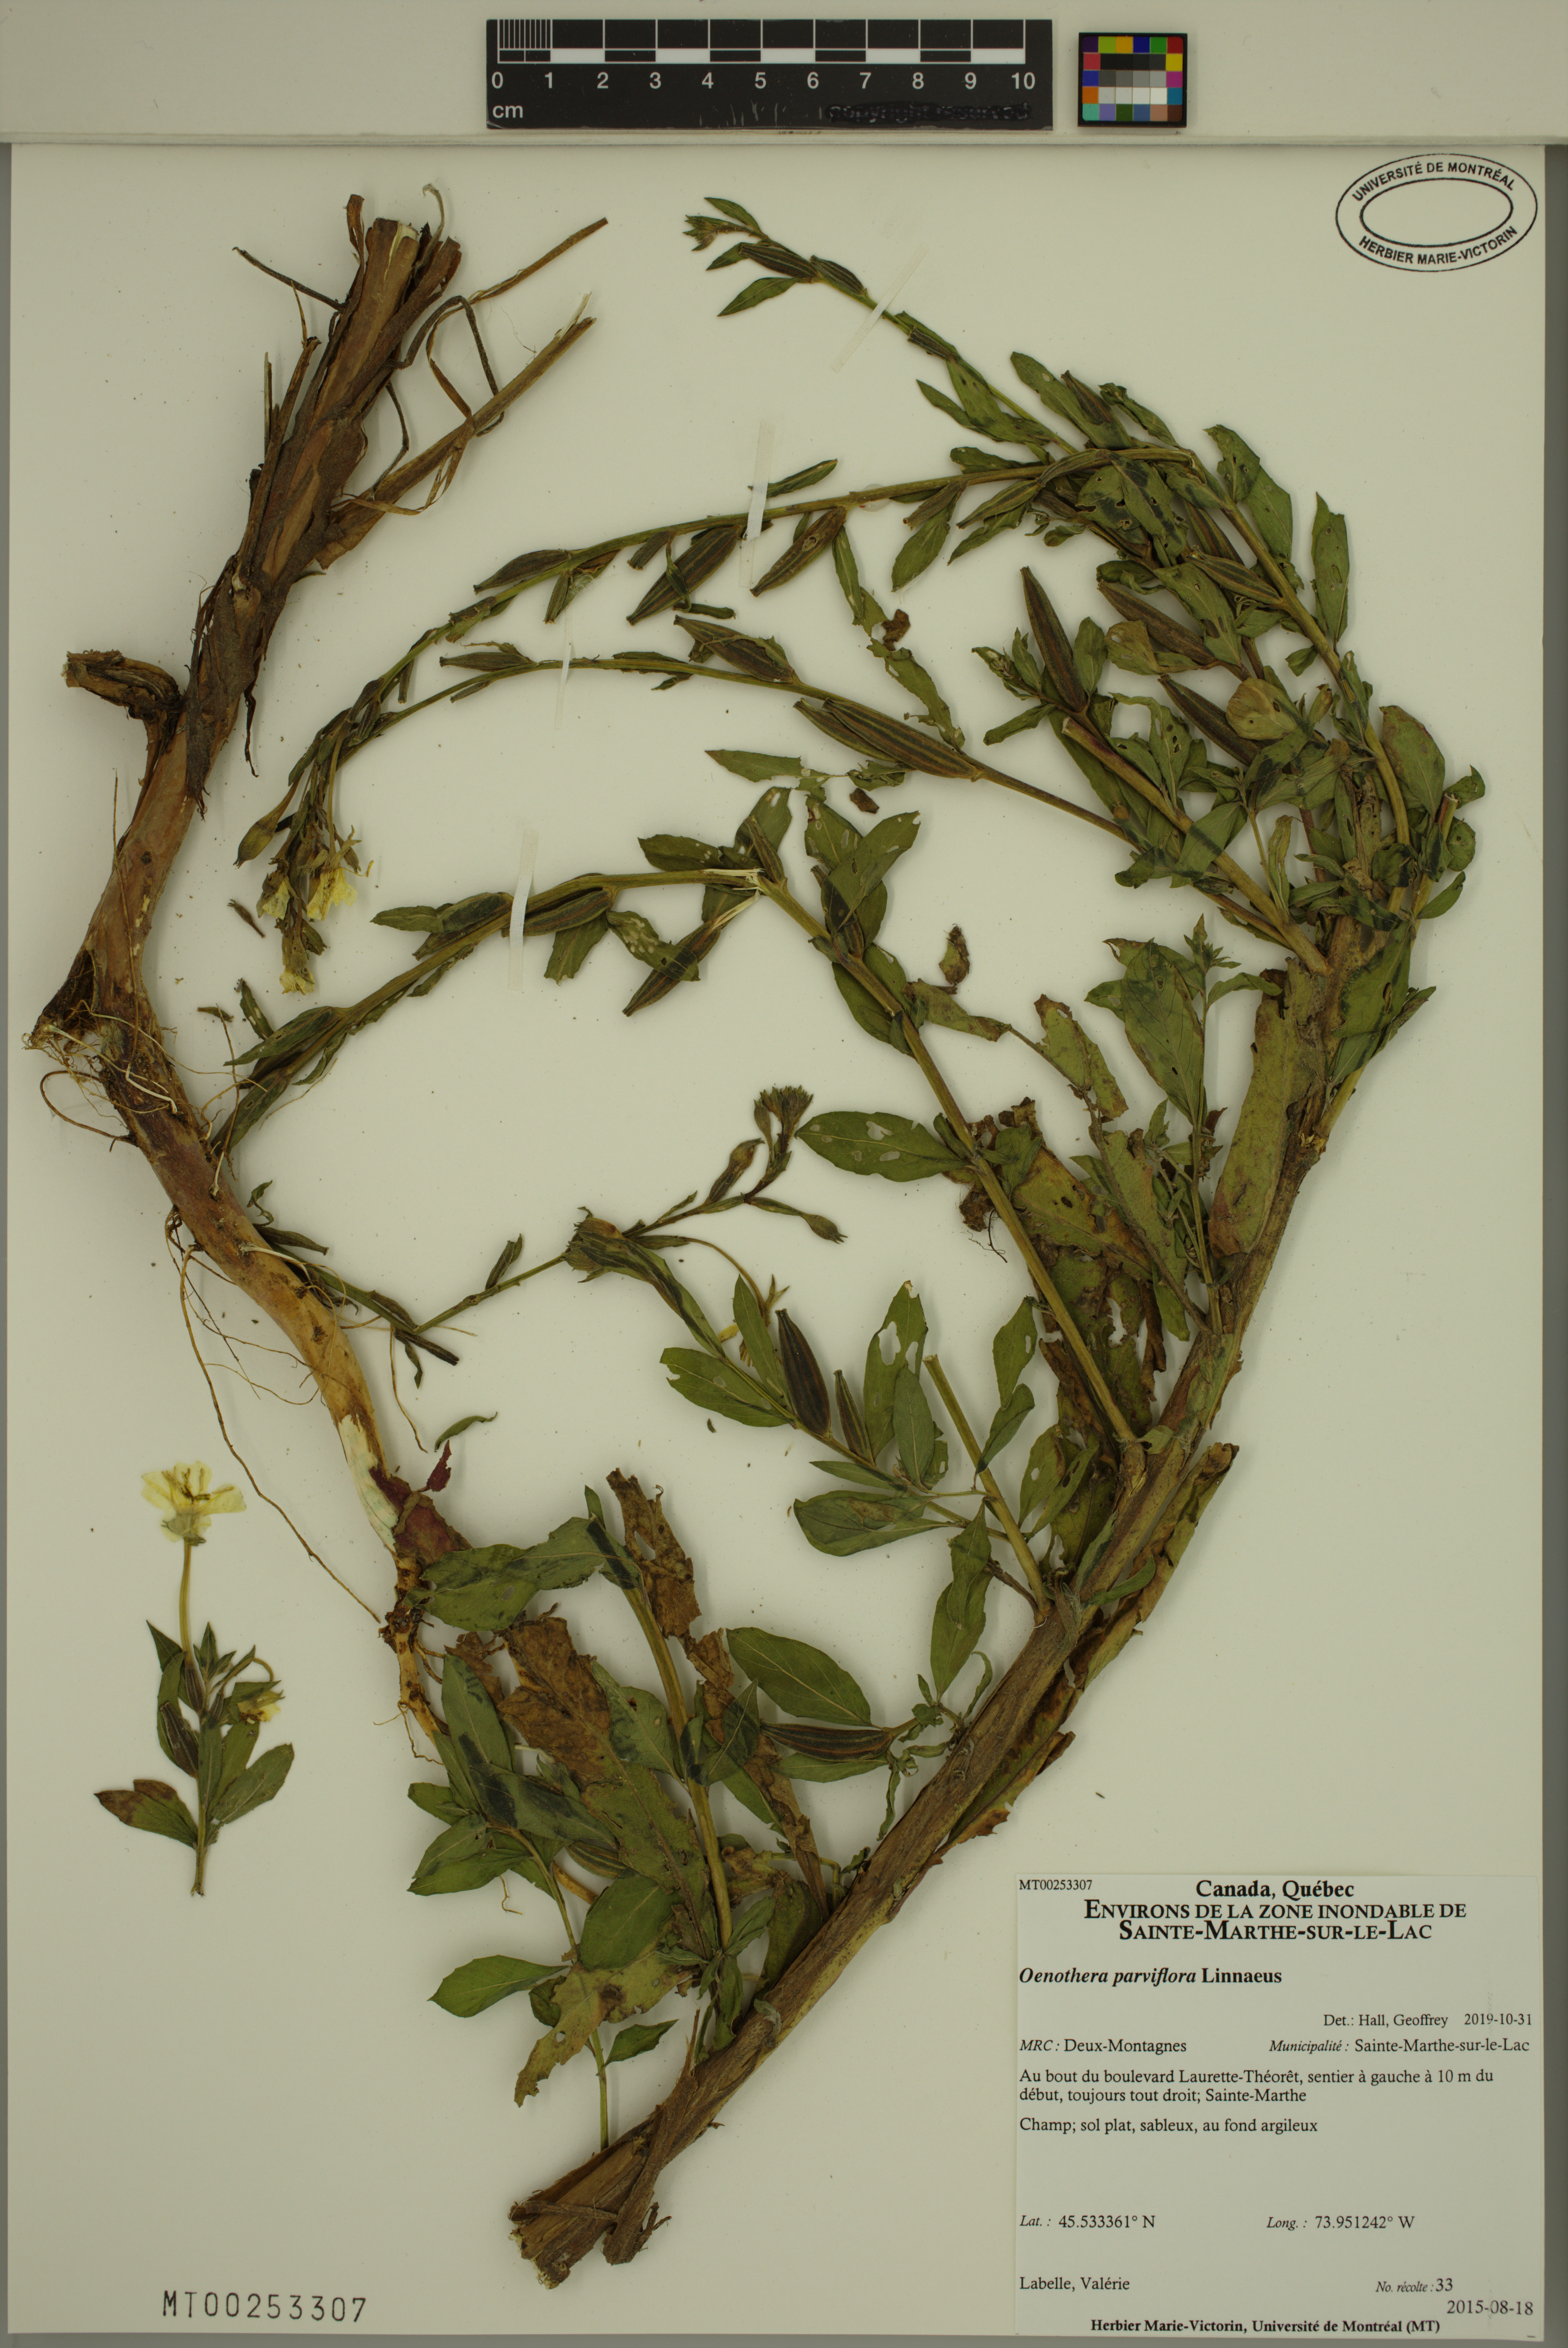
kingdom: Plantae
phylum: Tracheophyta
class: Magnoliopsida
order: Myrtales
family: Onagraceae
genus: Oenothera
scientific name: Oenothera parviflora
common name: Least evening-primrose
